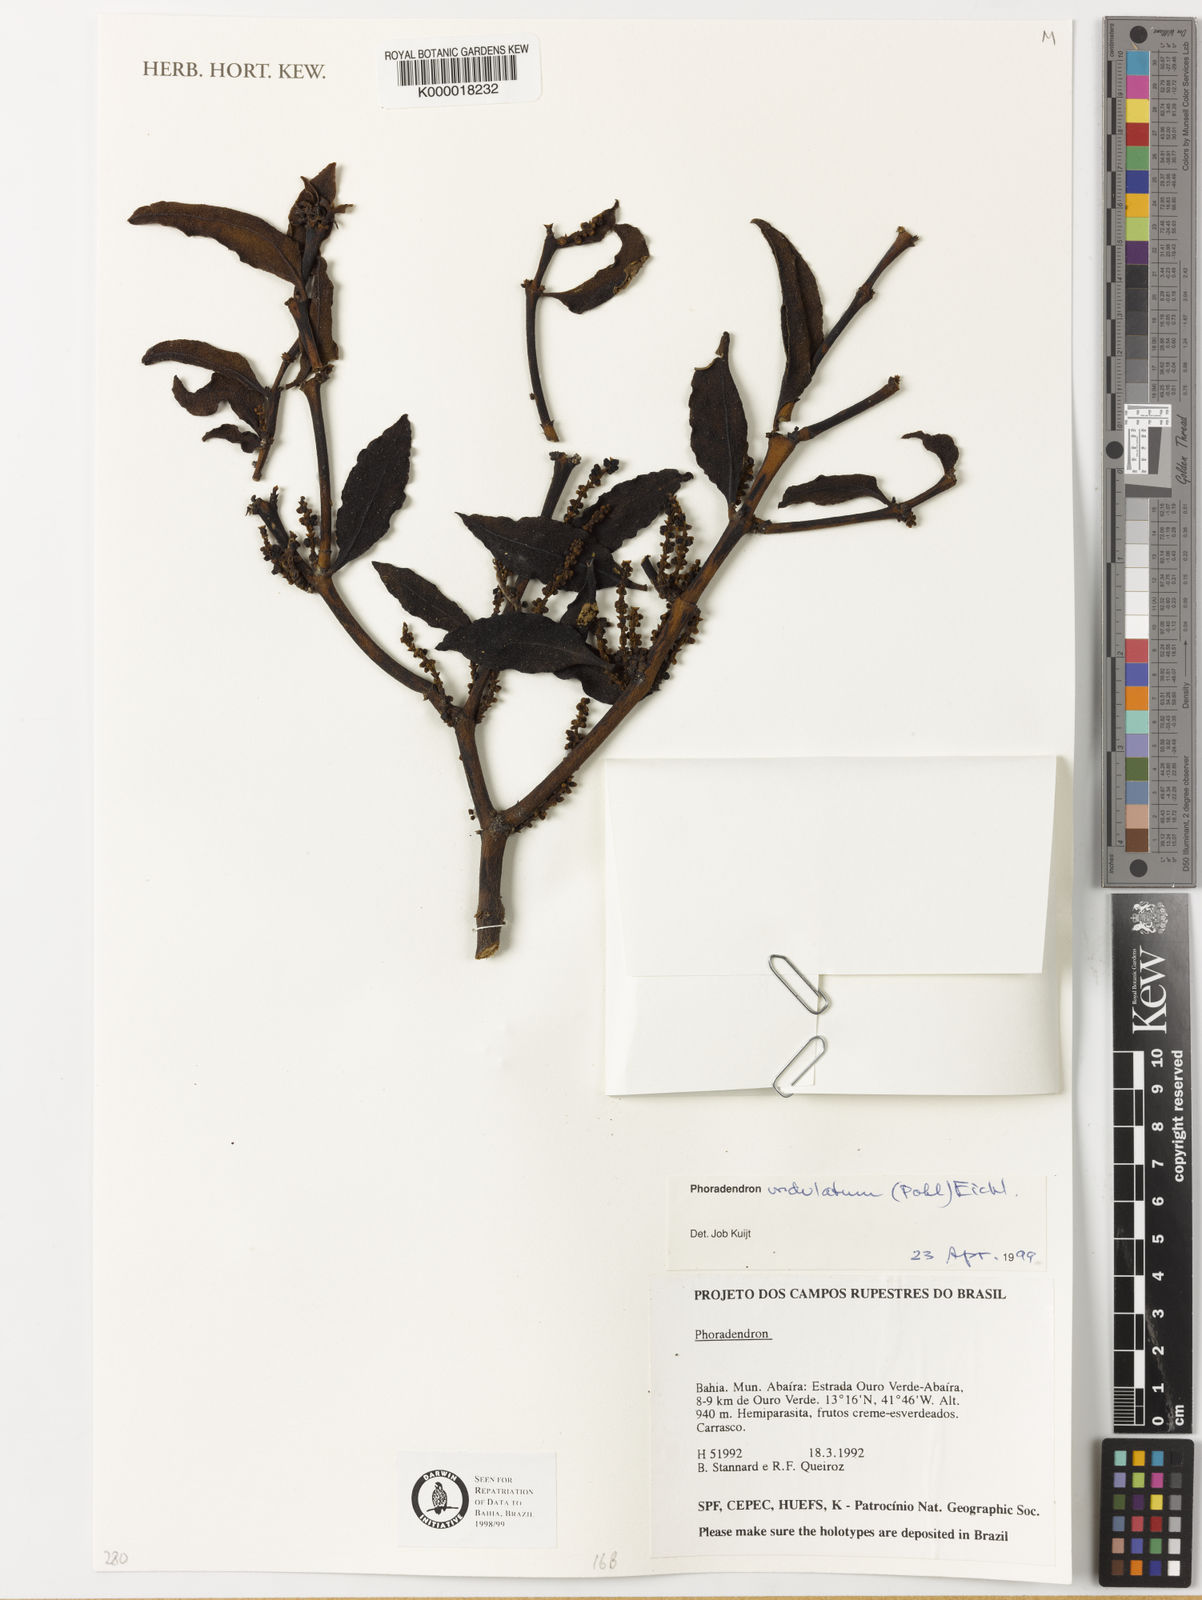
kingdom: Plantae
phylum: Tracheophyta
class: Magnoliopsida
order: Santalales
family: Viscaceae
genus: Phoradendron
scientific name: Phoradendron
